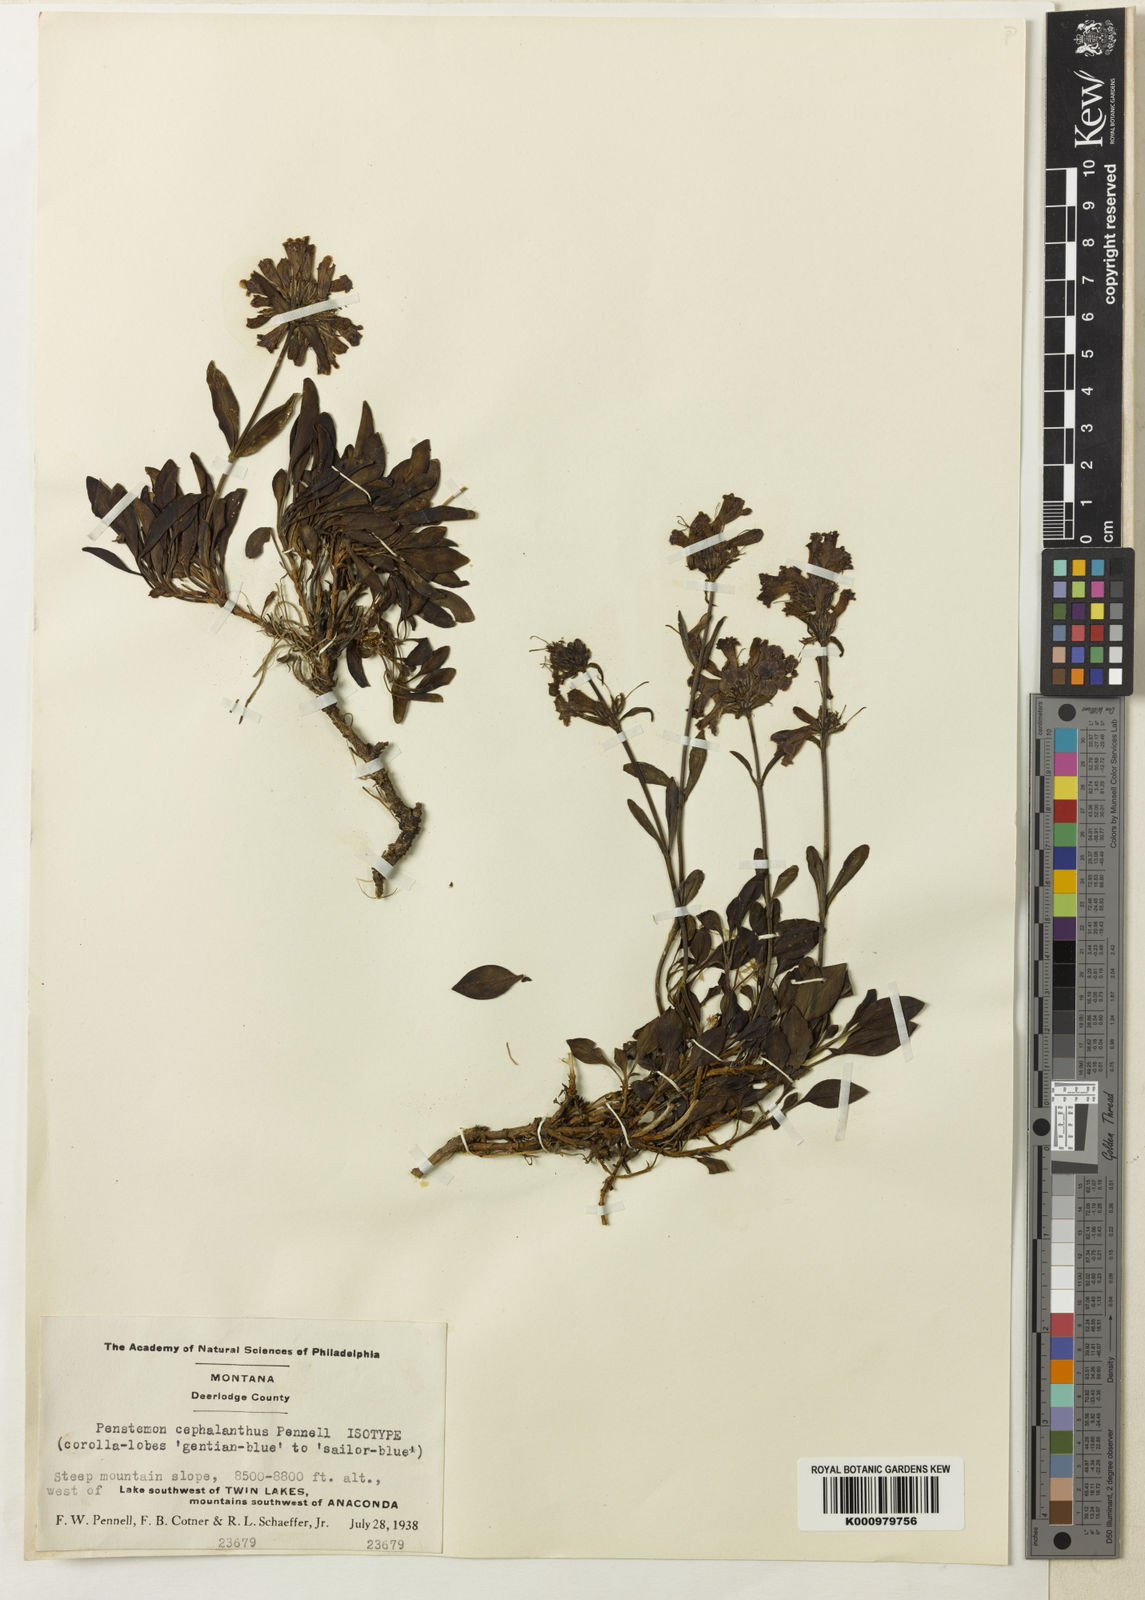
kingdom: Plantae
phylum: Tracheophyta
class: Magnoliopsida
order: Lamiales
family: Plantaginaceae
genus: Penstemon
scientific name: Penstemon attenuatus
